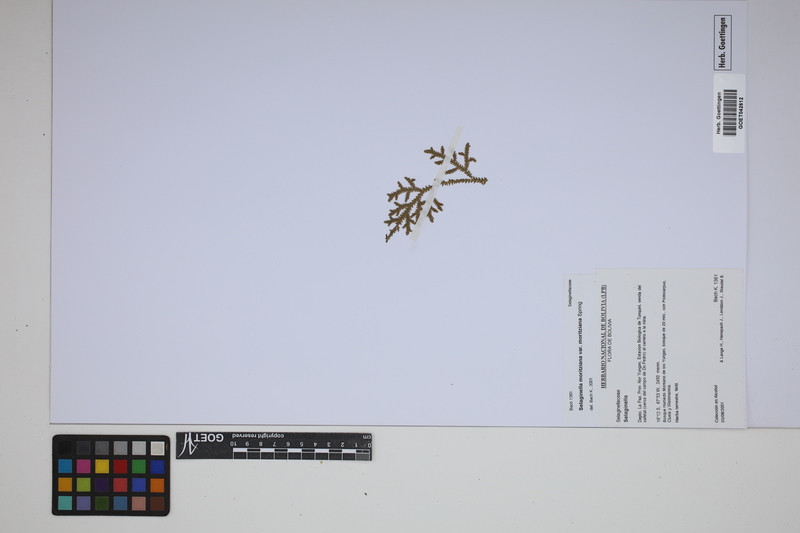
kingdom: Plantae
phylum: Tracheophyta
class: Lycopodiopsida
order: Selaginellales
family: Selaginellaceae
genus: Selaginella
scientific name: Selaginella moritziana
